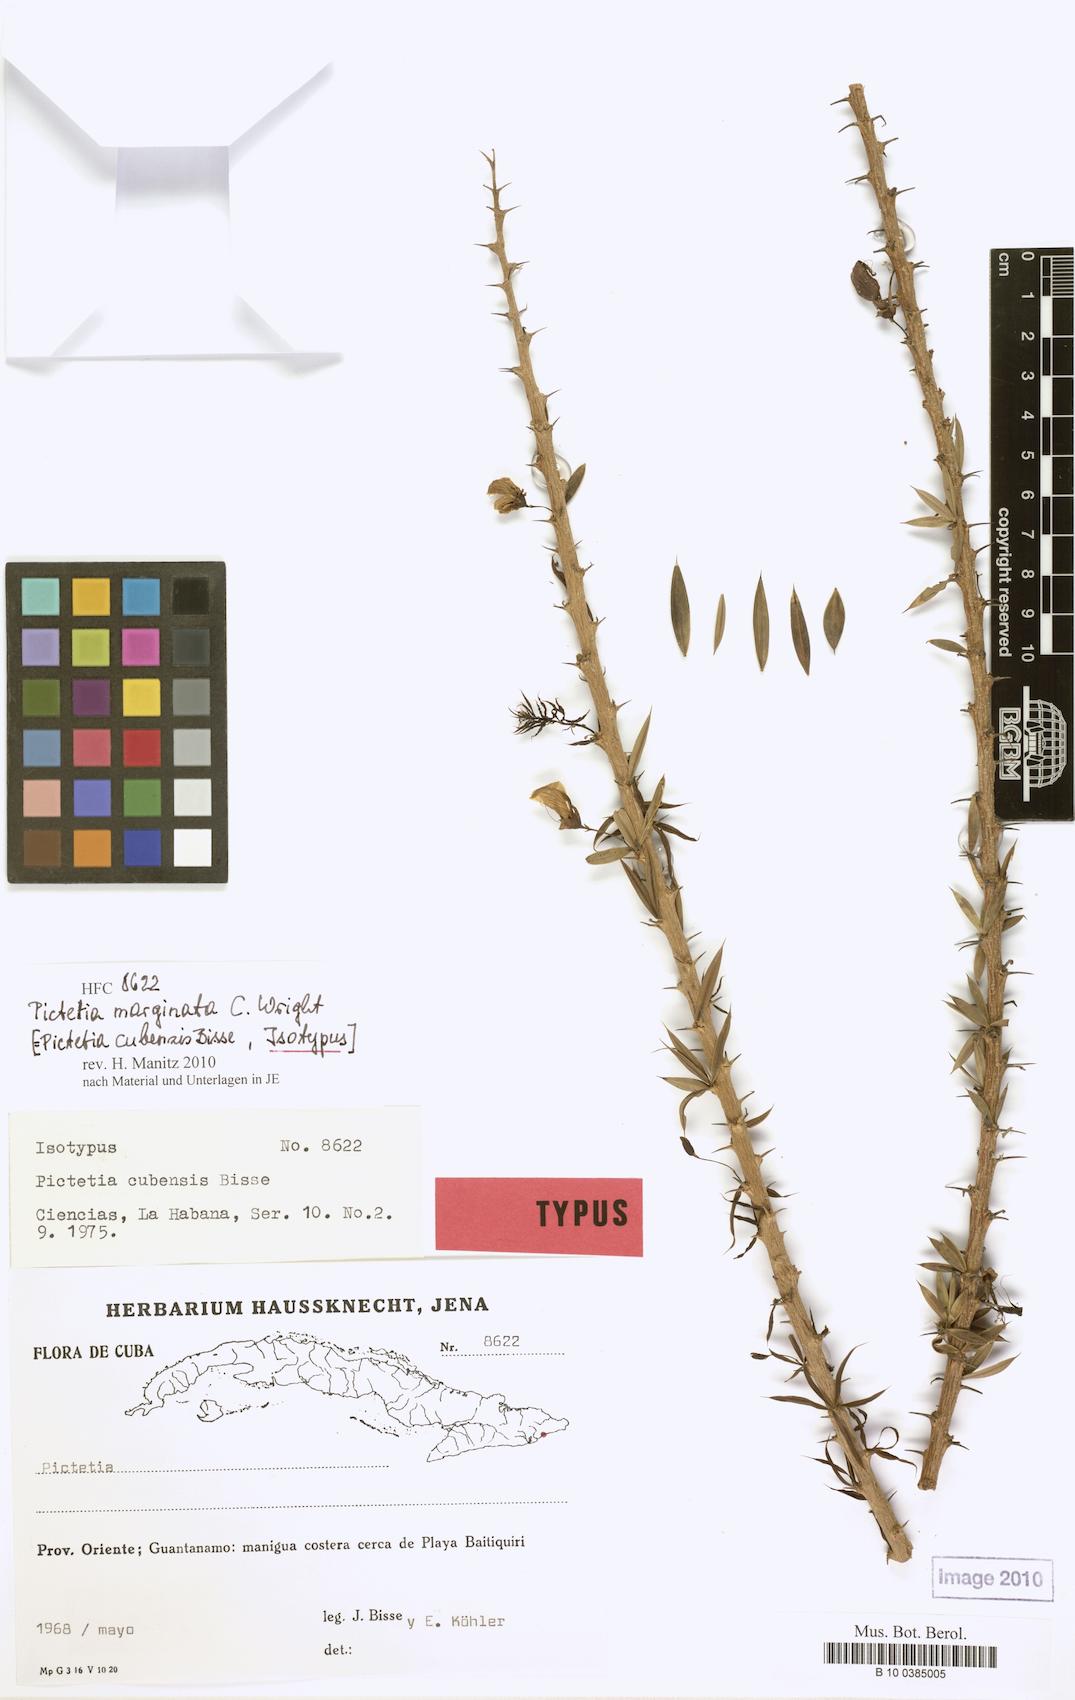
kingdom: Plantae
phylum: Tracheophyta
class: Magnoliopsida
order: Fabales
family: Fabaceae
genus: Pictetia
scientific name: Pictetia marginata
